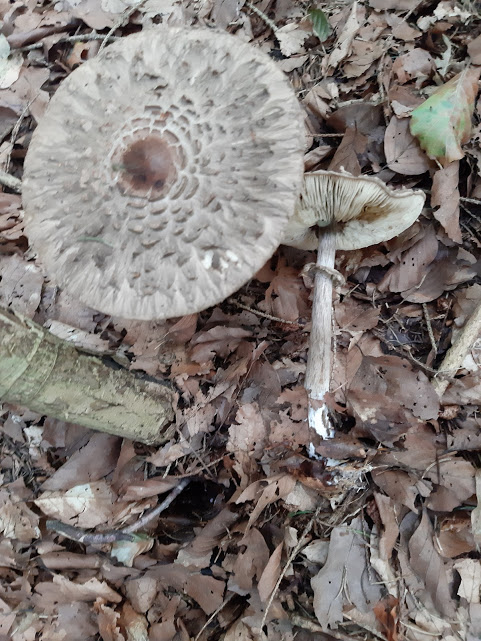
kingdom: Fungi
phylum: Basidiomycota
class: Agaricomycetes
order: Agaricales
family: Agaricaceae
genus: Chlorophyllum
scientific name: Chlorophyllum olivieri
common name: almindelig rabarberhat
